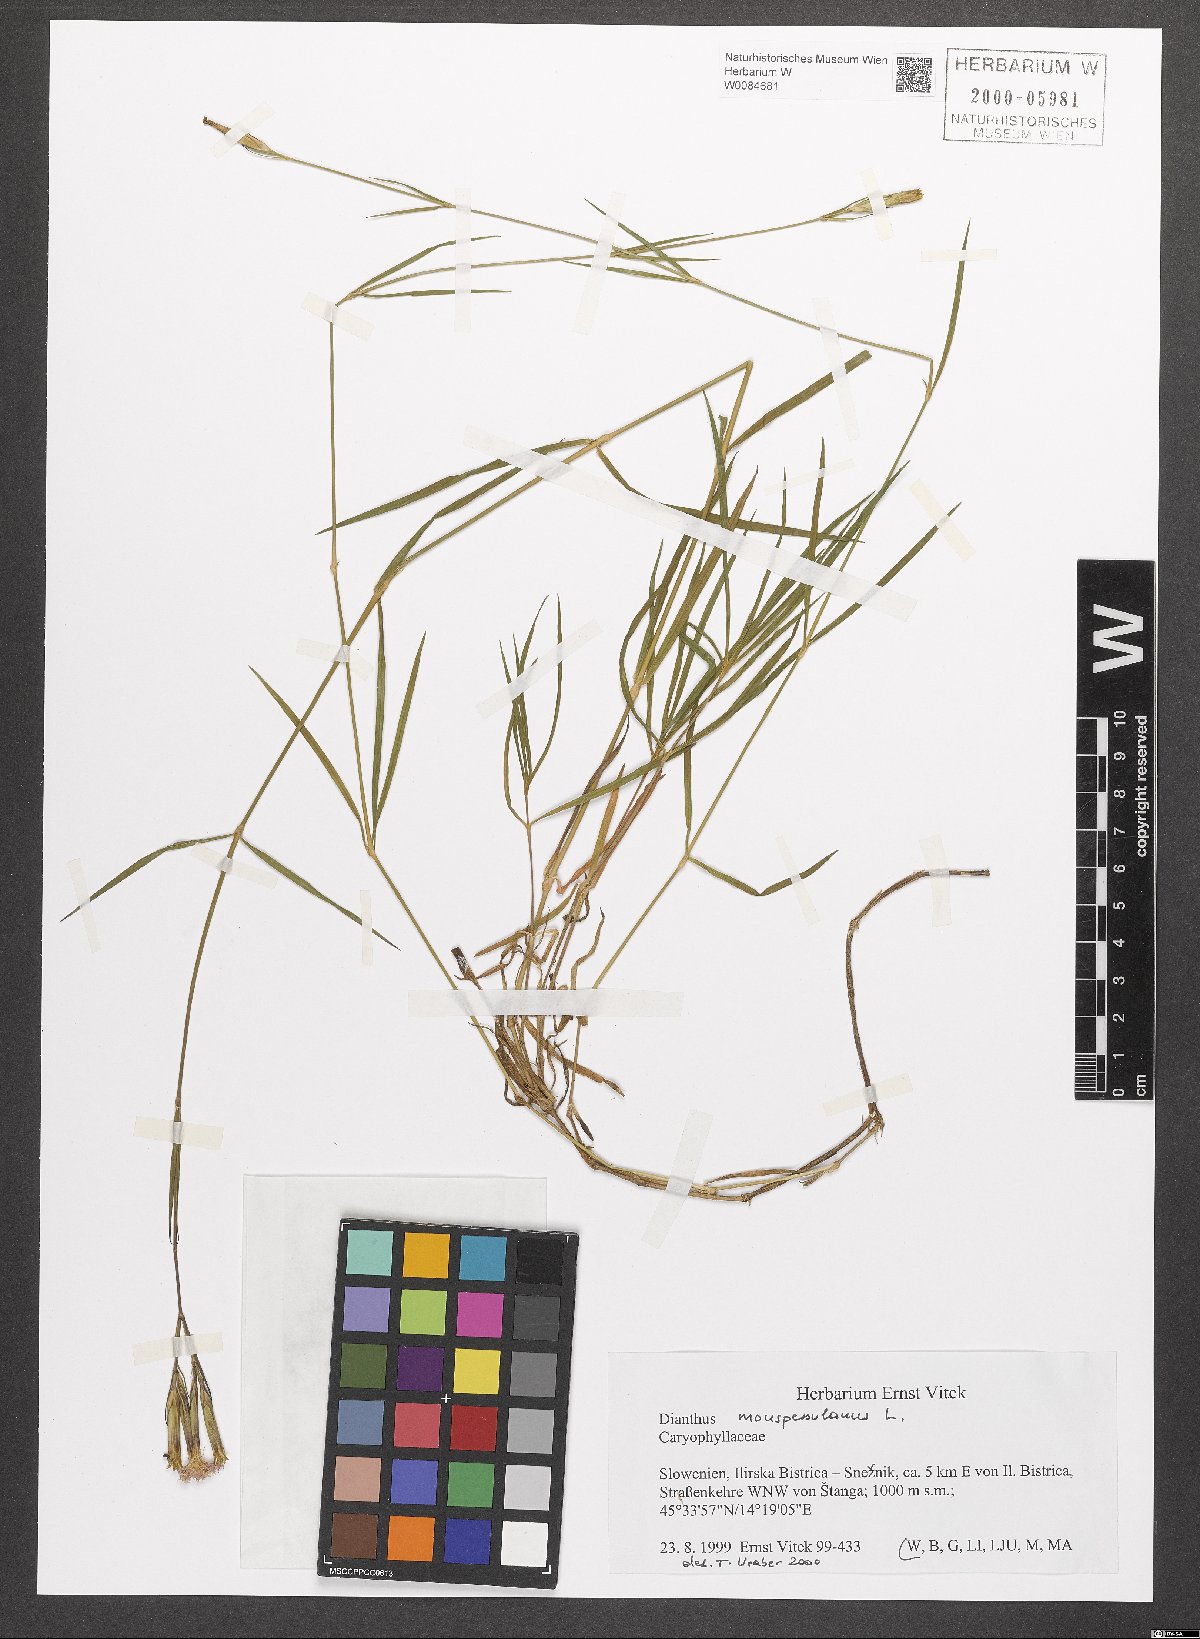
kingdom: Plantae
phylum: Tracheophyta
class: Magnoliopsida
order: Caryophyllales
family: Caryophyllaceae
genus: Dianthus
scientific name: Dianthus hyssopifolius
